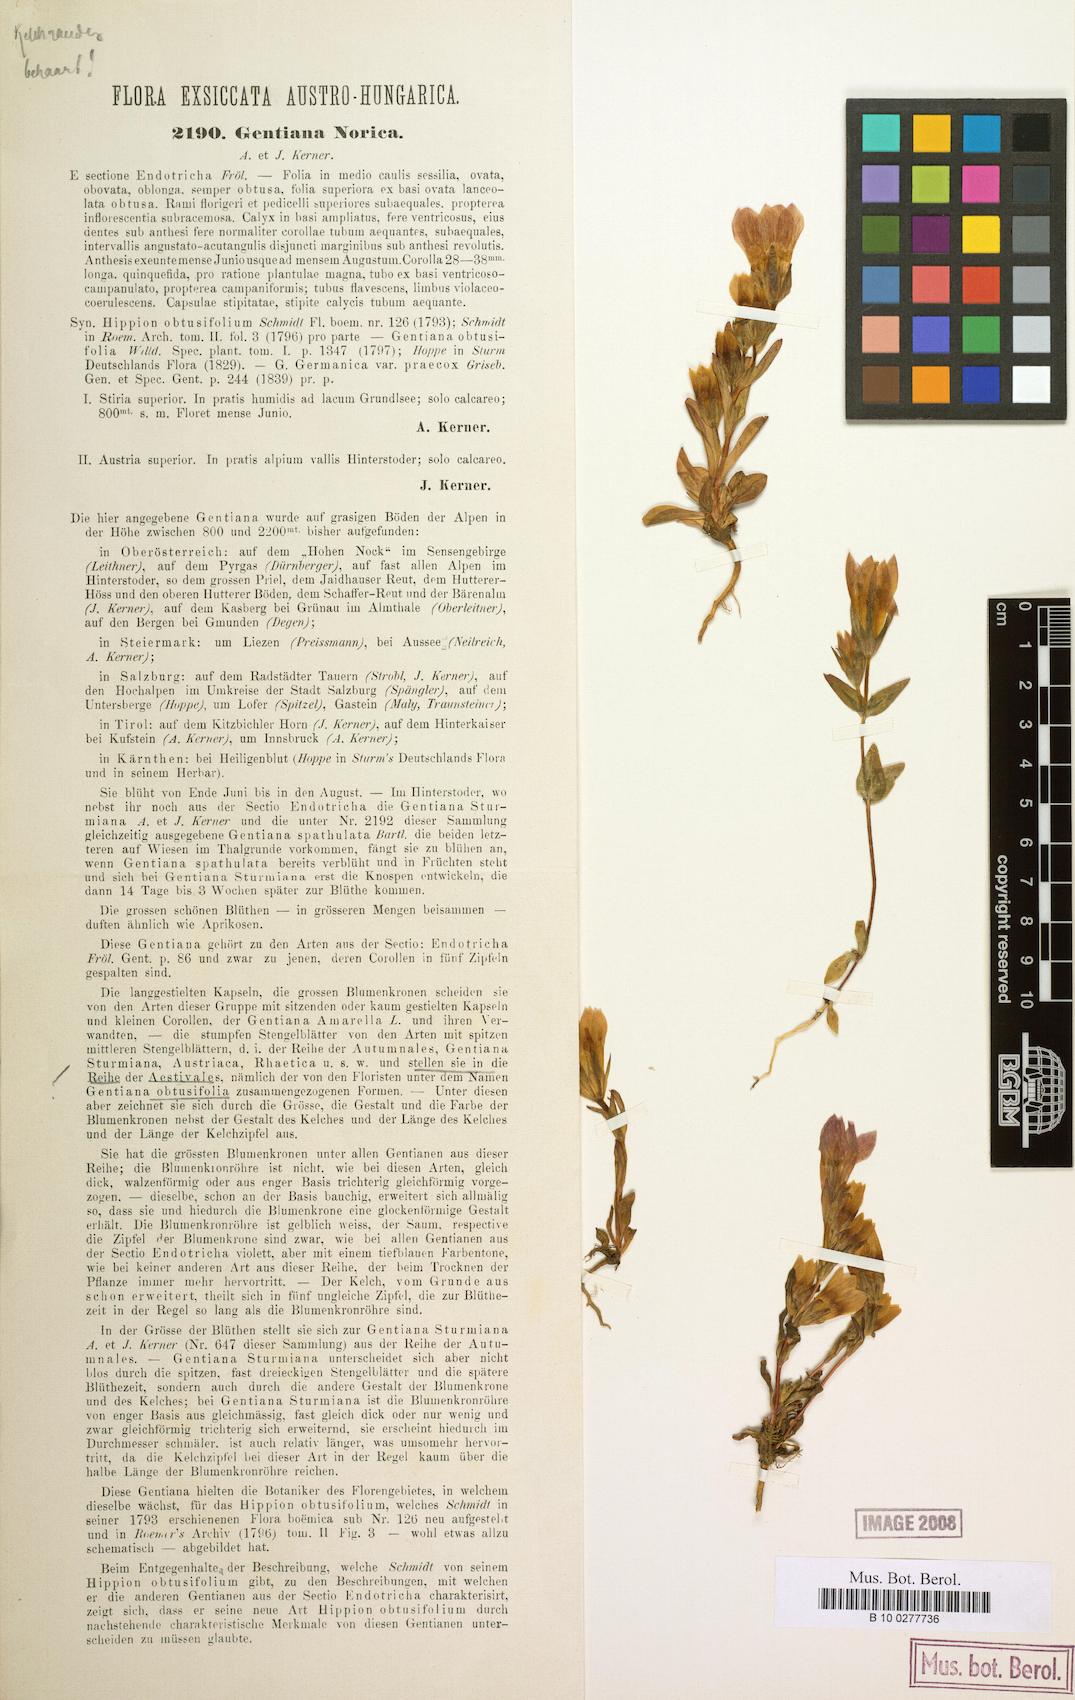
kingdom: Plantae
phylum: Tracheophyta
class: Magnoliopsida
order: Gentianales
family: Gentianaceae
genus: Gentianella
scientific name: Gentianella obtusifolia
